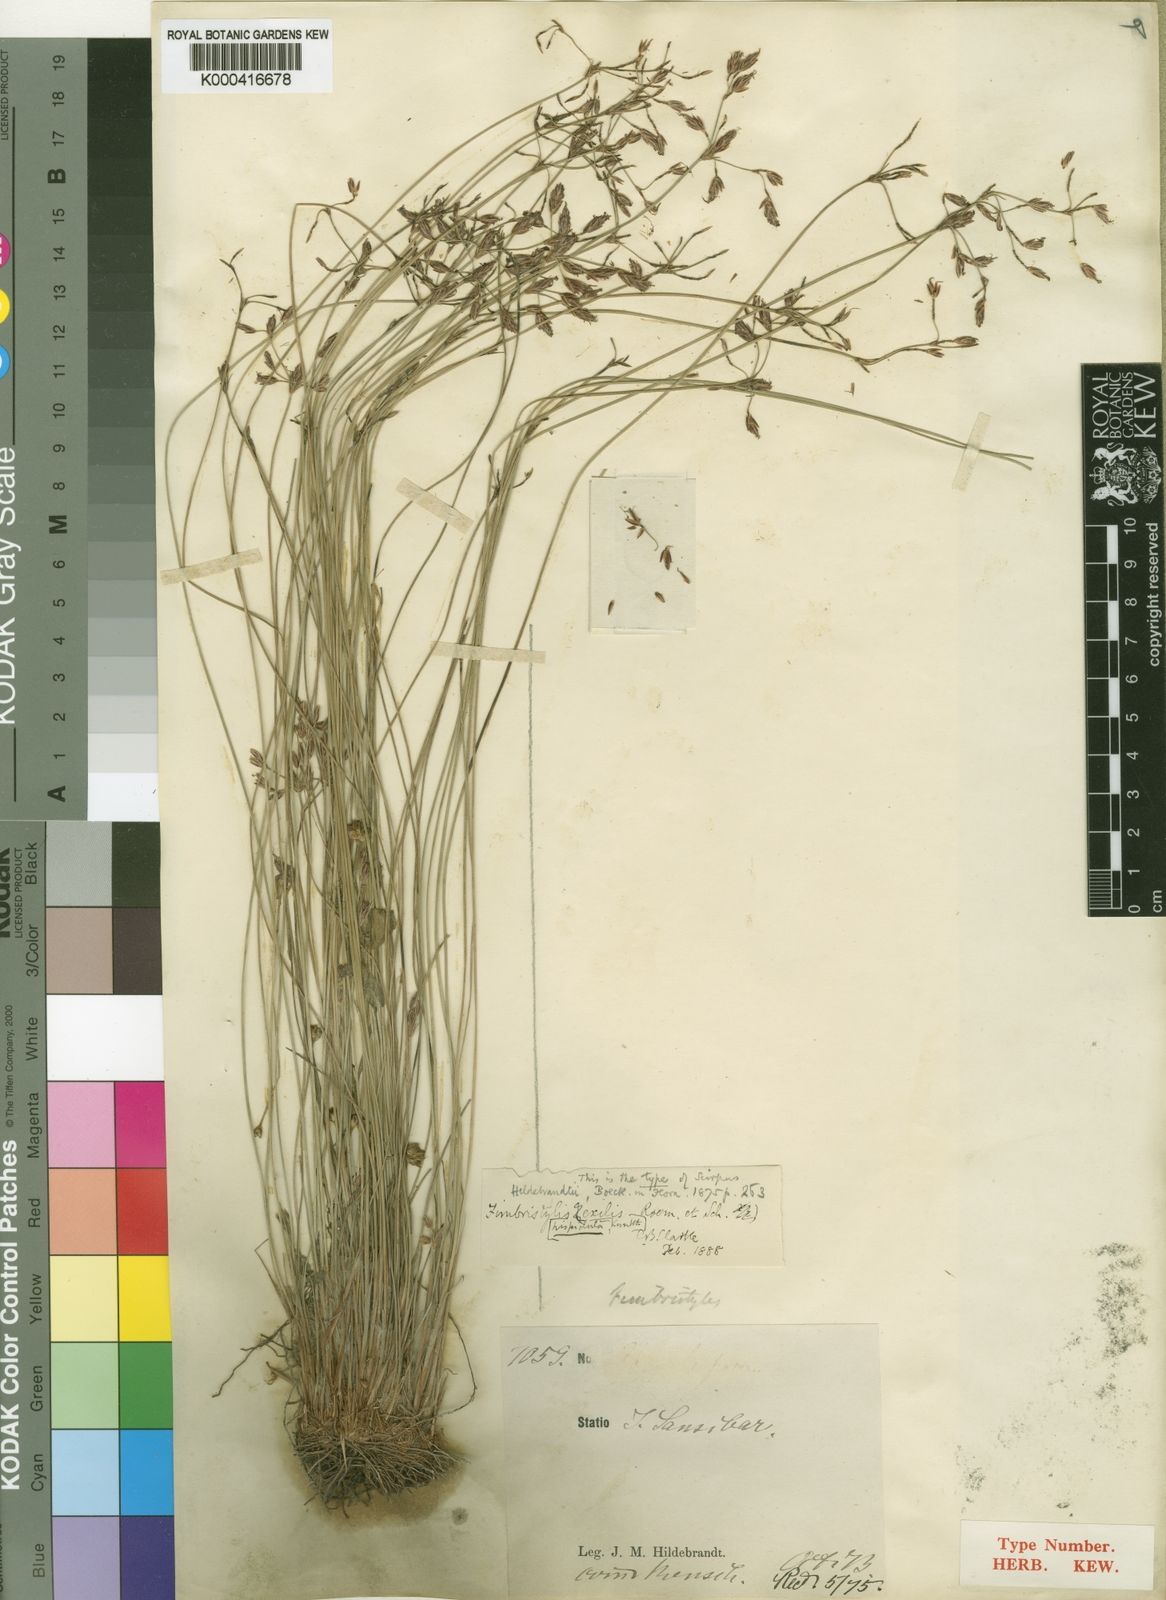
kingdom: Plantae
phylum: Tracheophyta
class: Liliopsida
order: Poales
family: Cyperaceae
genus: Bulbostylis
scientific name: Bulbostylis hispidula
